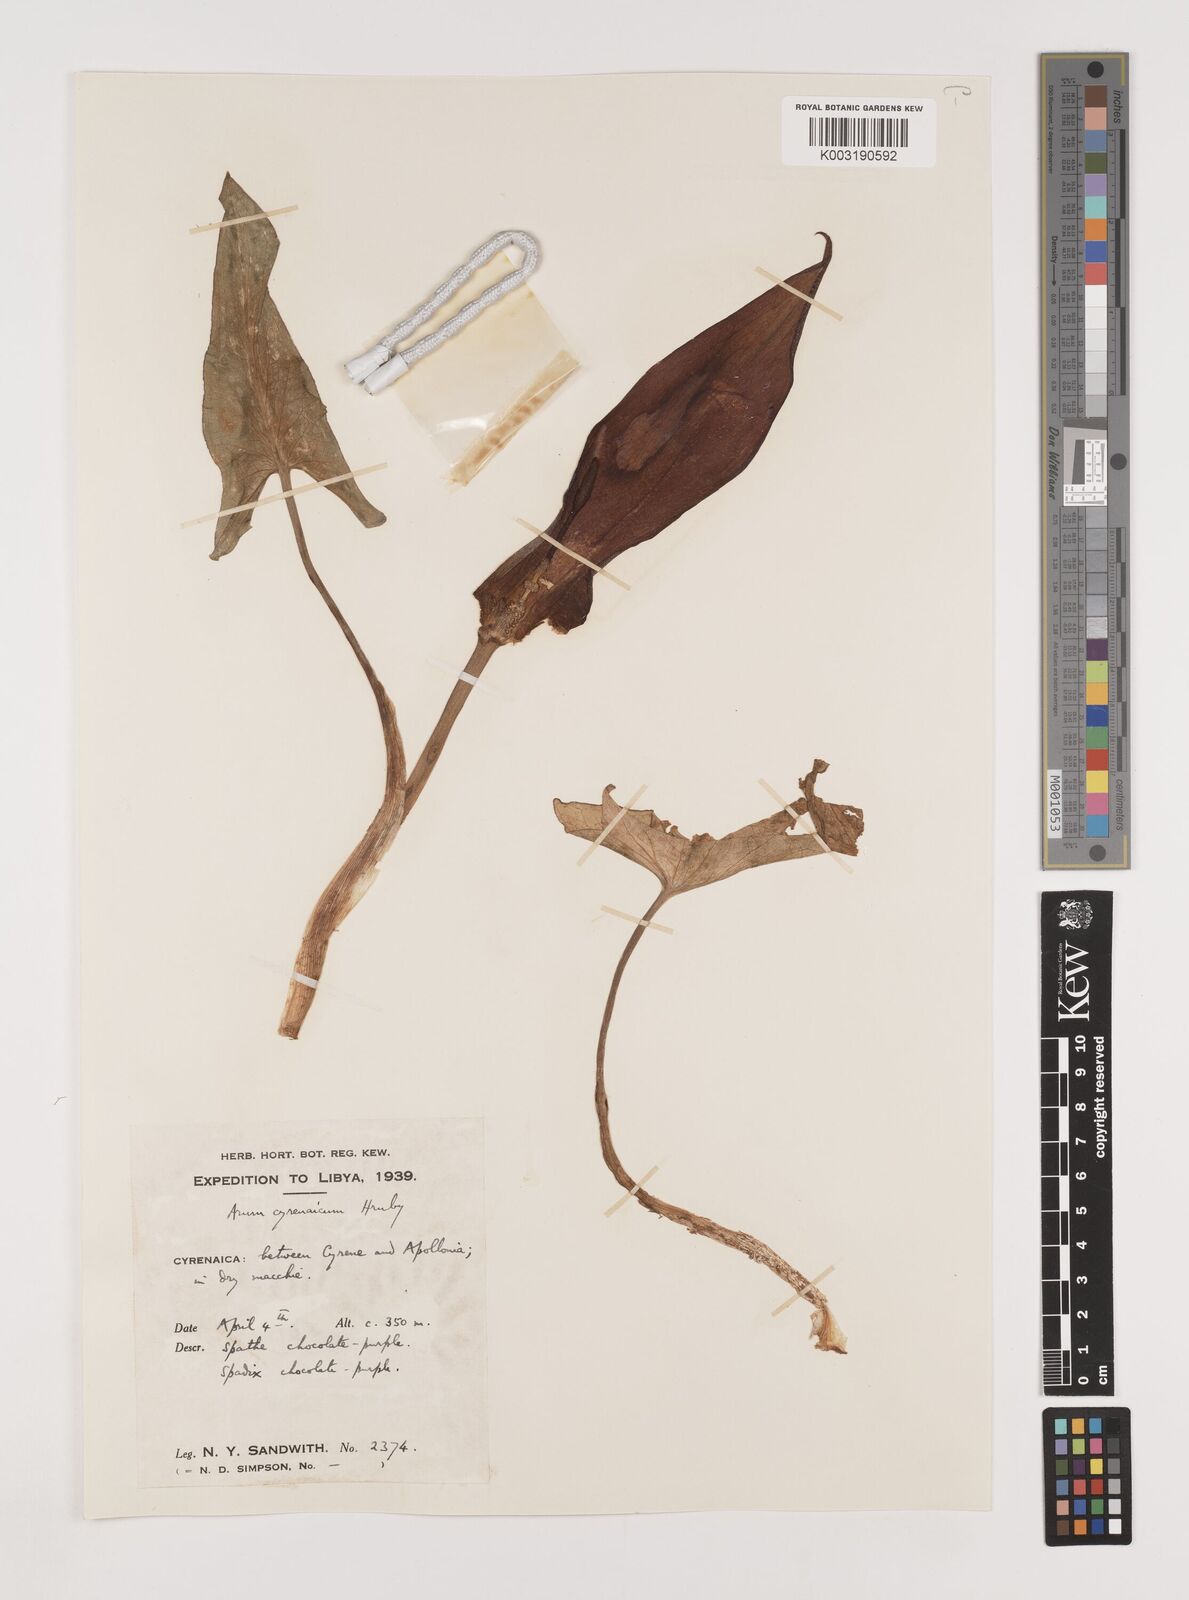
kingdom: Plantae
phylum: Tracheophyta
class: Liliopsida
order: Alismatales
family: Araceae
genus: Arum
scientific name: Arum cyrenaicum
